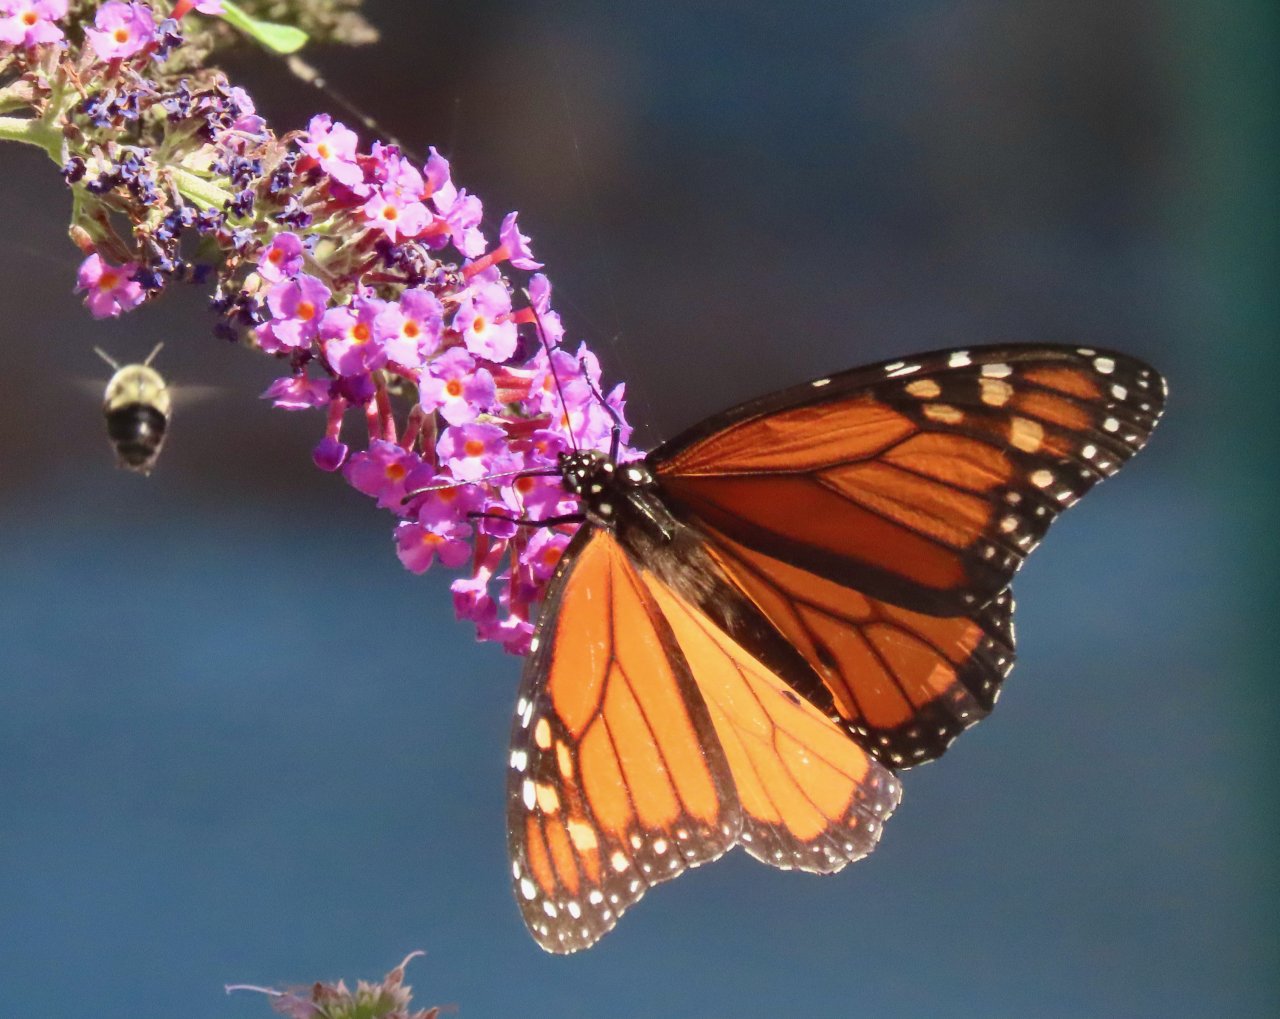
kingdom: Animalia
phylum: Arthropoda
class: Insecta
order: Lepidoptera
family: Nymphalidae
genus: Danaus
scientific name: Danaus plexippus
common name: Monarch
